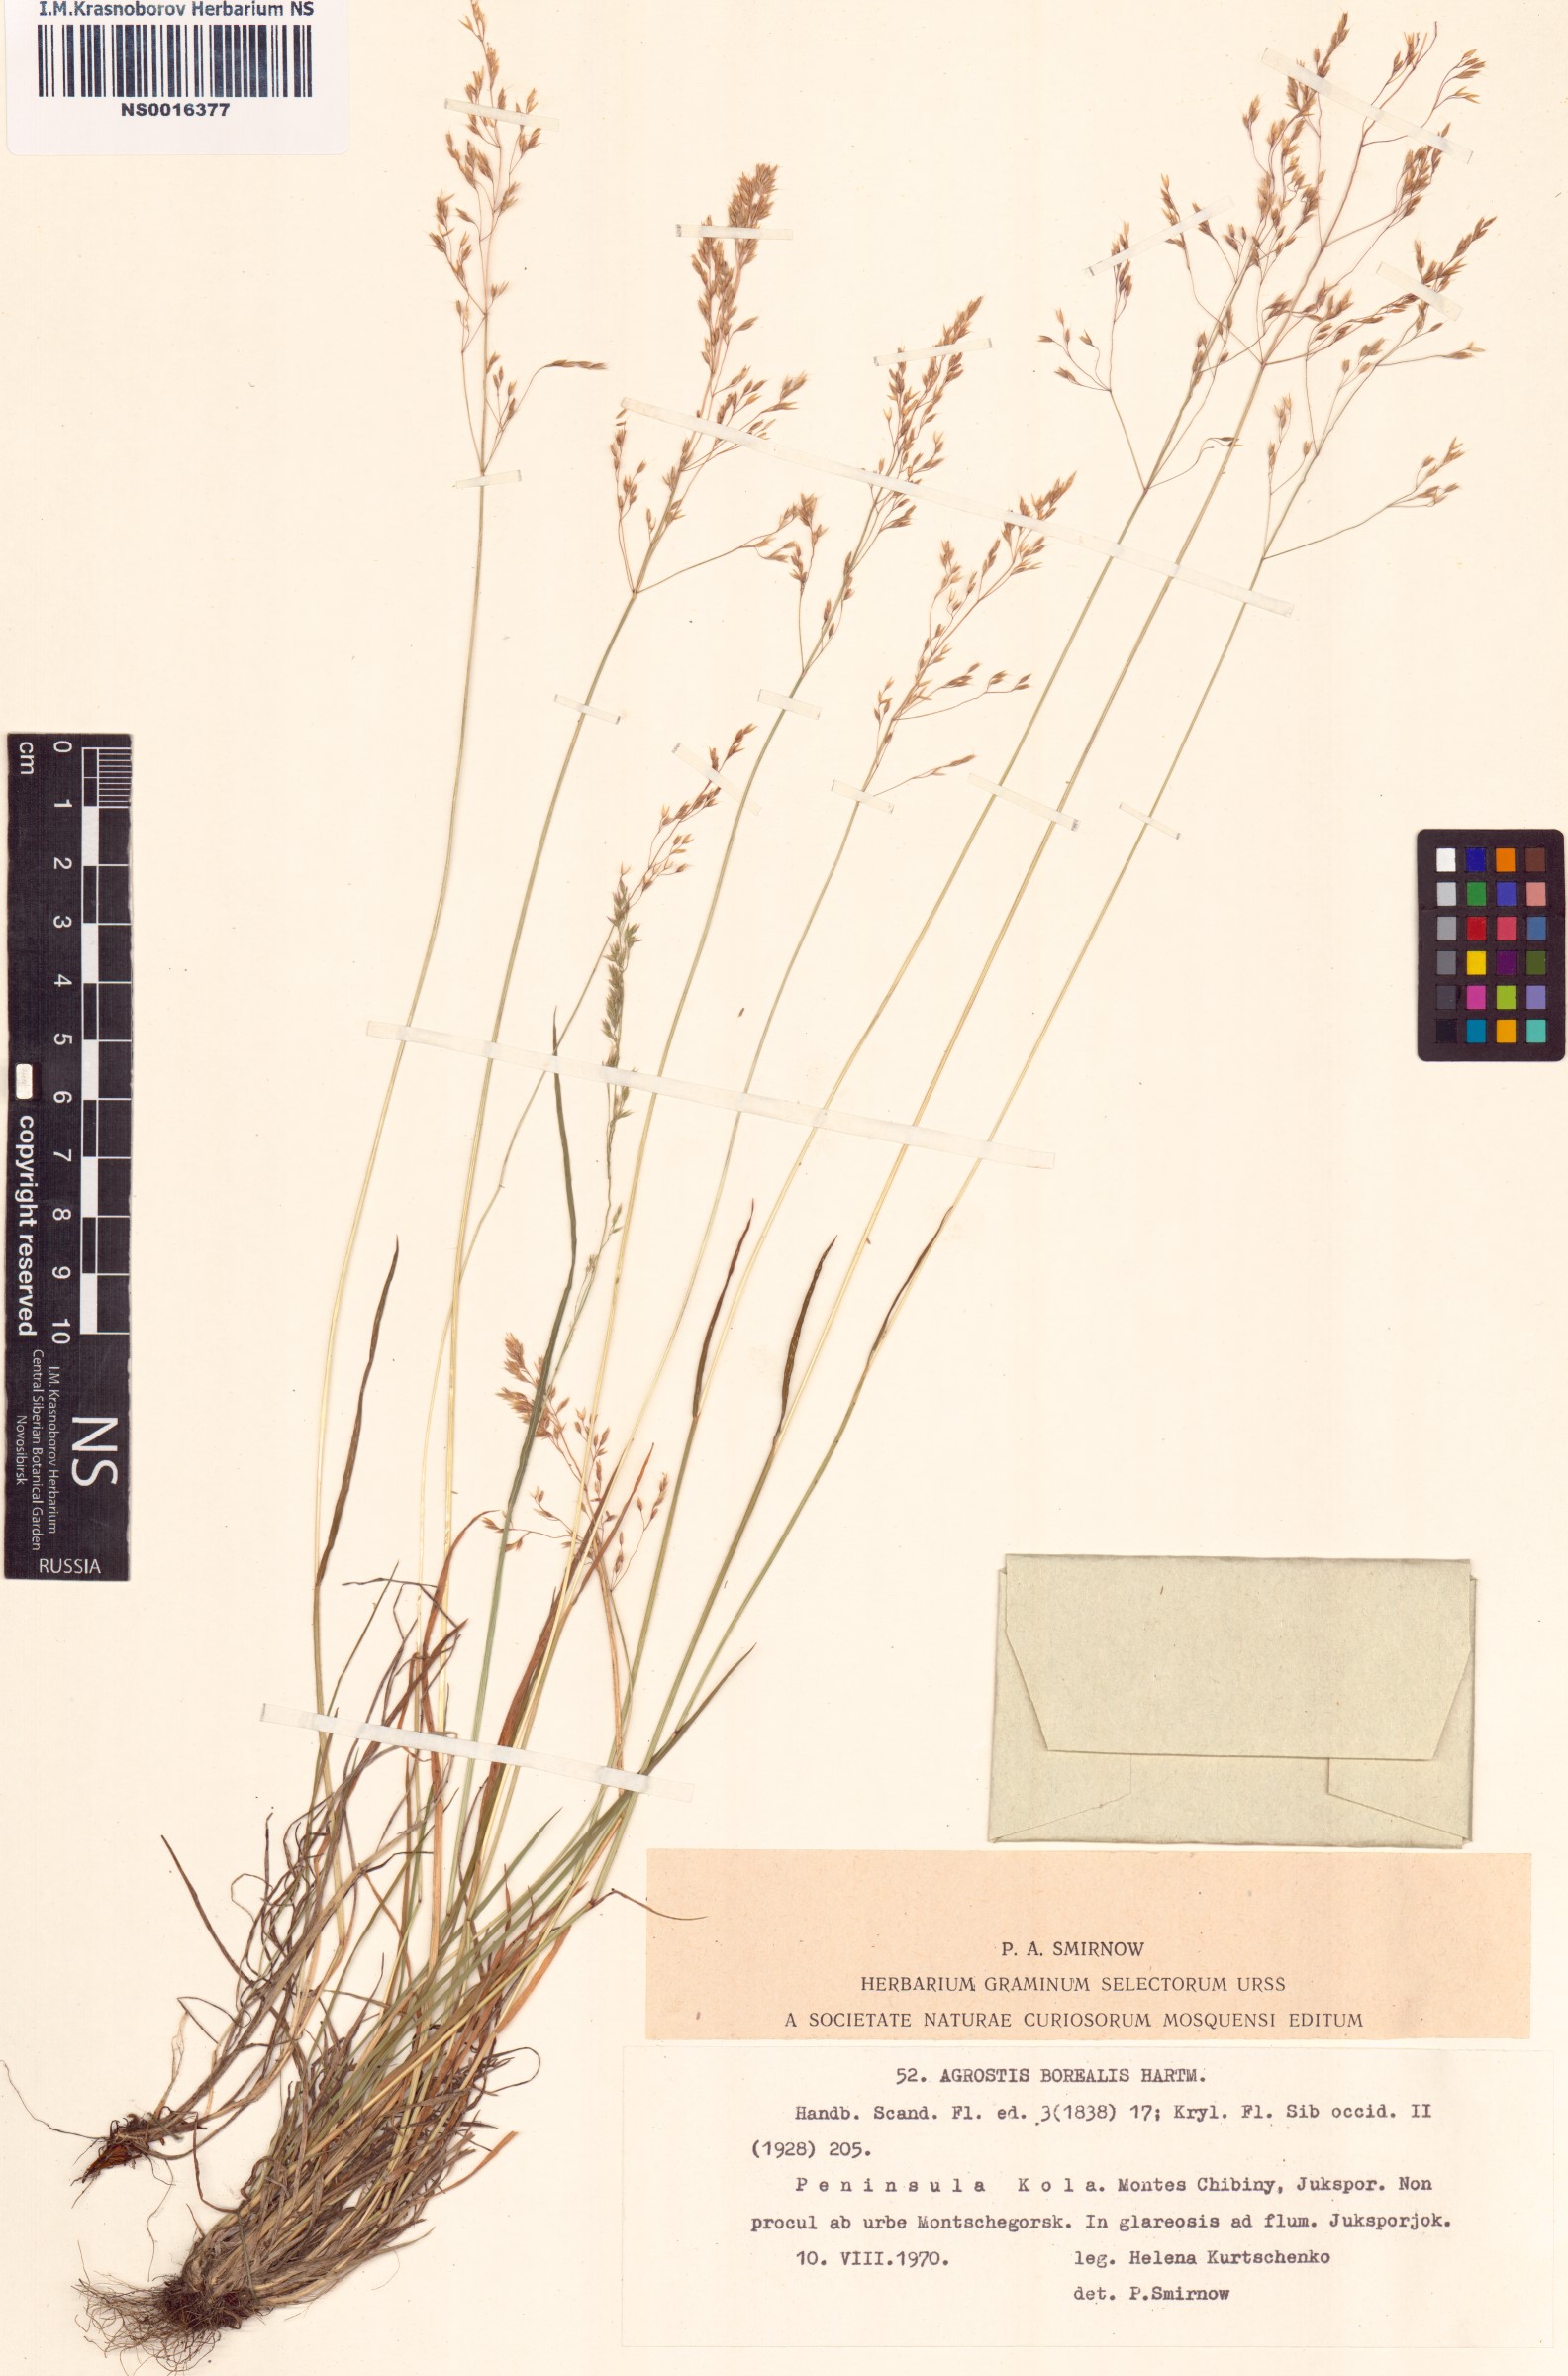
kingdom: Plantae
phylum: Tracheophyta
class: Liliopsida
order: Poales
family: Poaceae
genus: Agrostis
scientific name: Agrostis mertensii
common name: Northern bent
